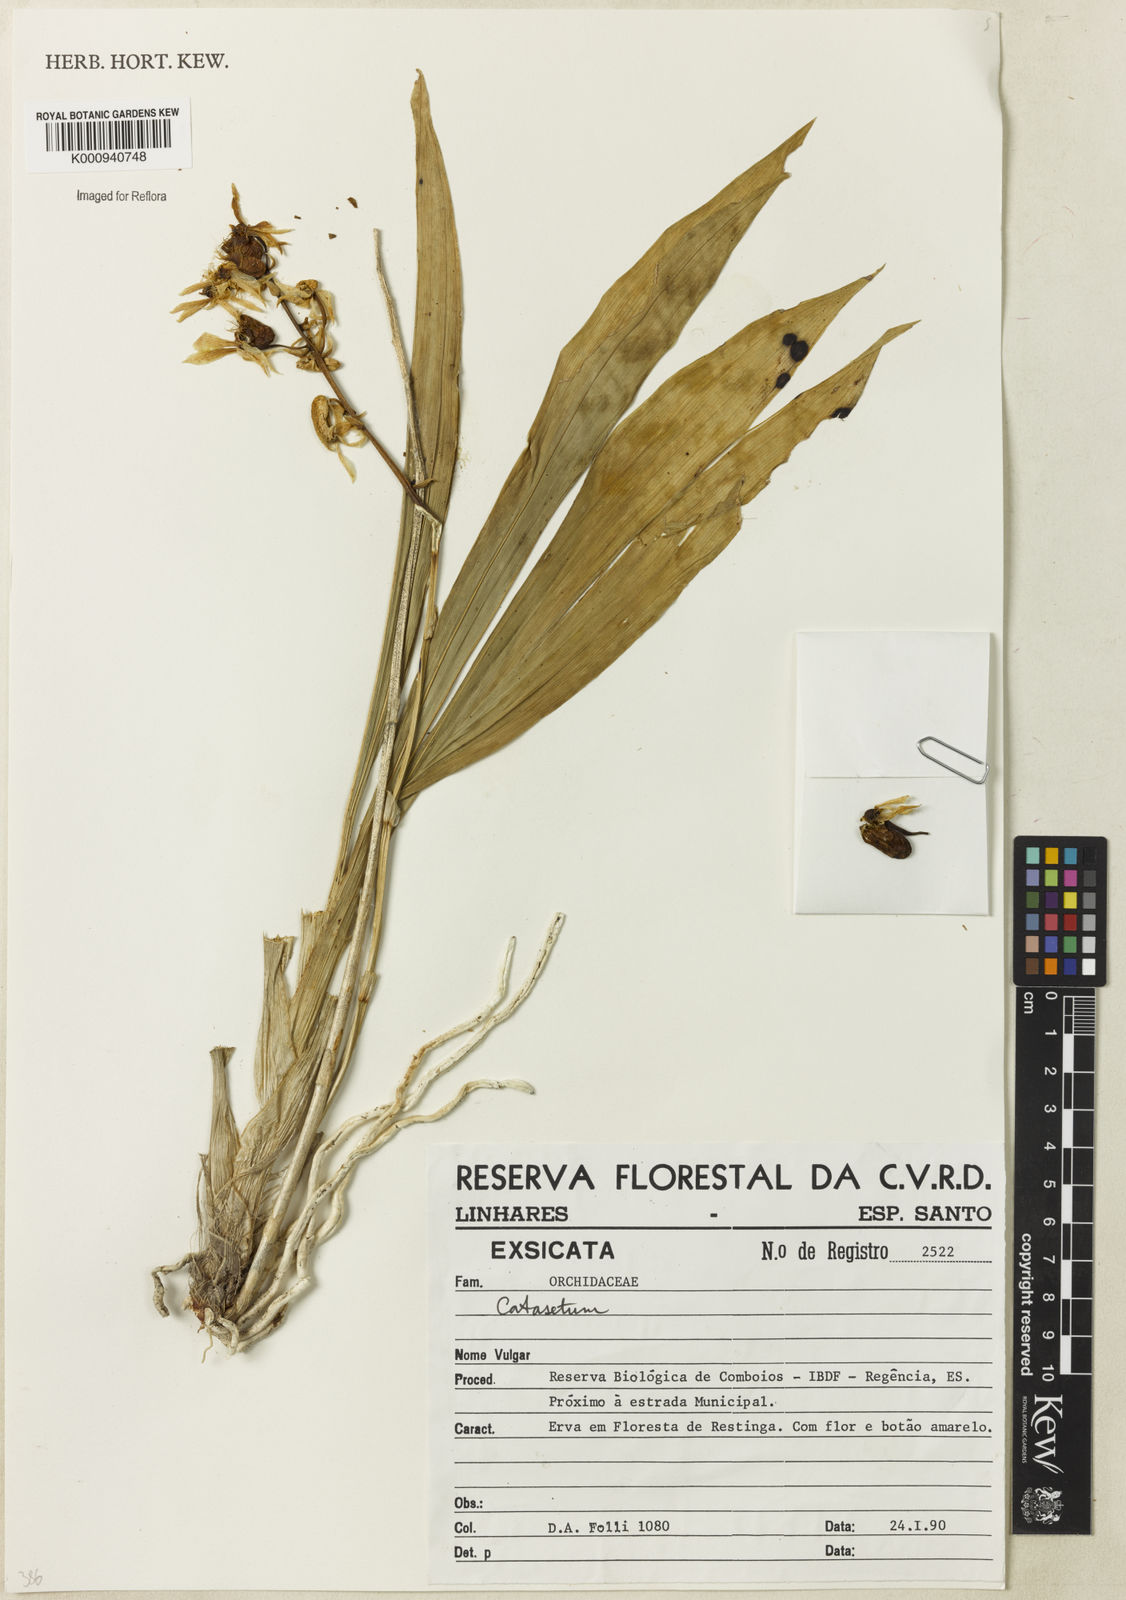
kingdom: Plantae
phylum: Tracheophyta
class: Liliopsida
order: Asparagales
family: Orchidaceae
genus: Catasetum
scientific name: Catasetum
